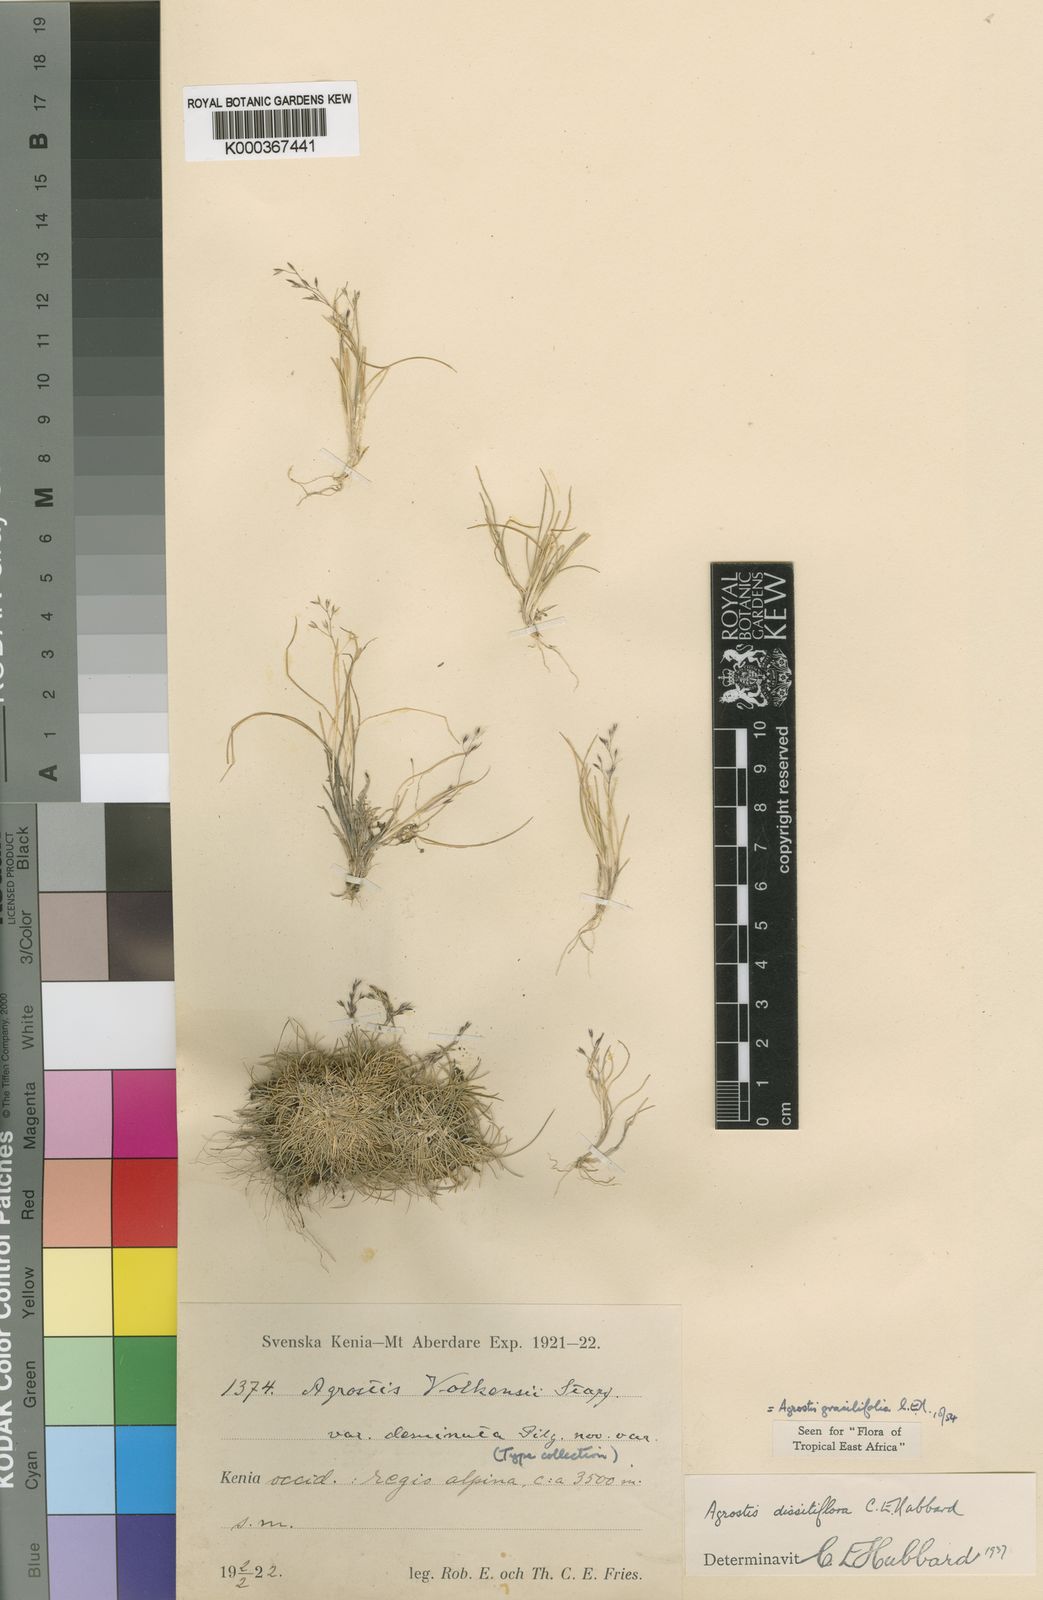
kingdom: Plantae
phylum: Tracheophyta
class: Liliopsida
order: Poales
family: Poaceae
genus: Agrostis
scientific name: Agrostis gracilifolia
